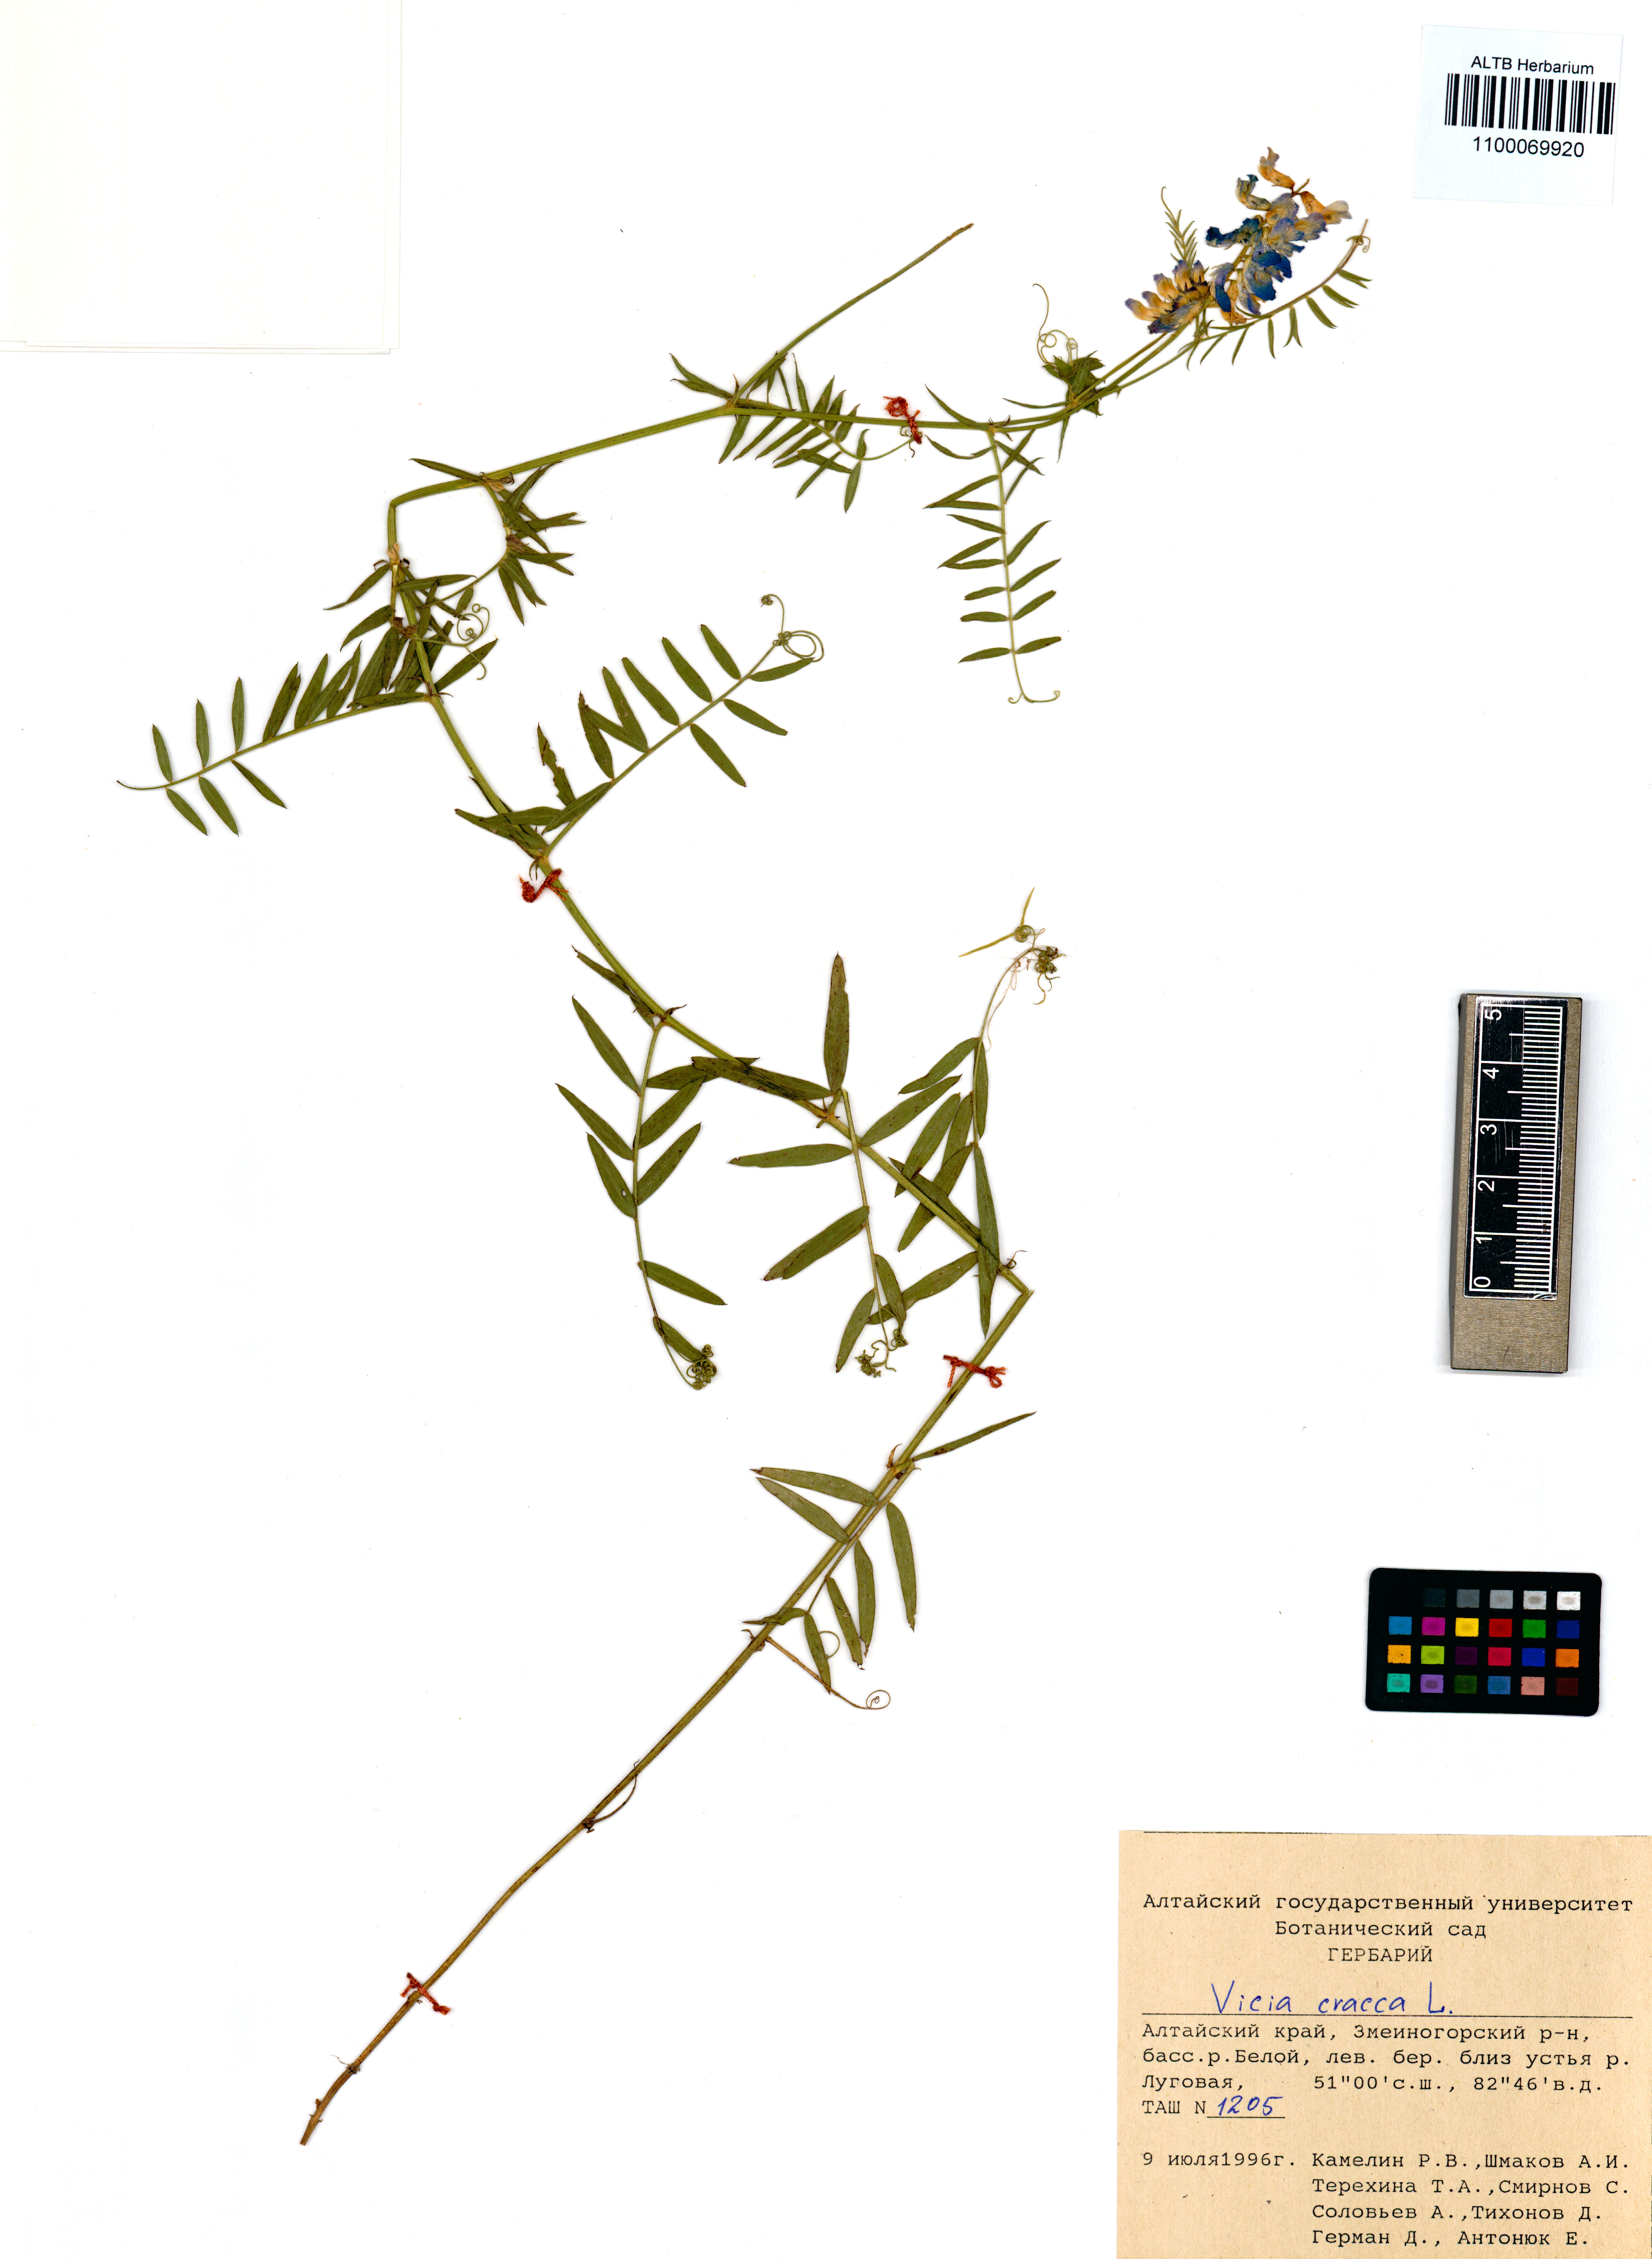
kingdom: Plantae
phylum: Tracheophyta
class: Magnoliopsida
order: Fabales
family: Fabaceae
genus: Vicia
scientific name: Vicia cracca
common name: Bird vetch
